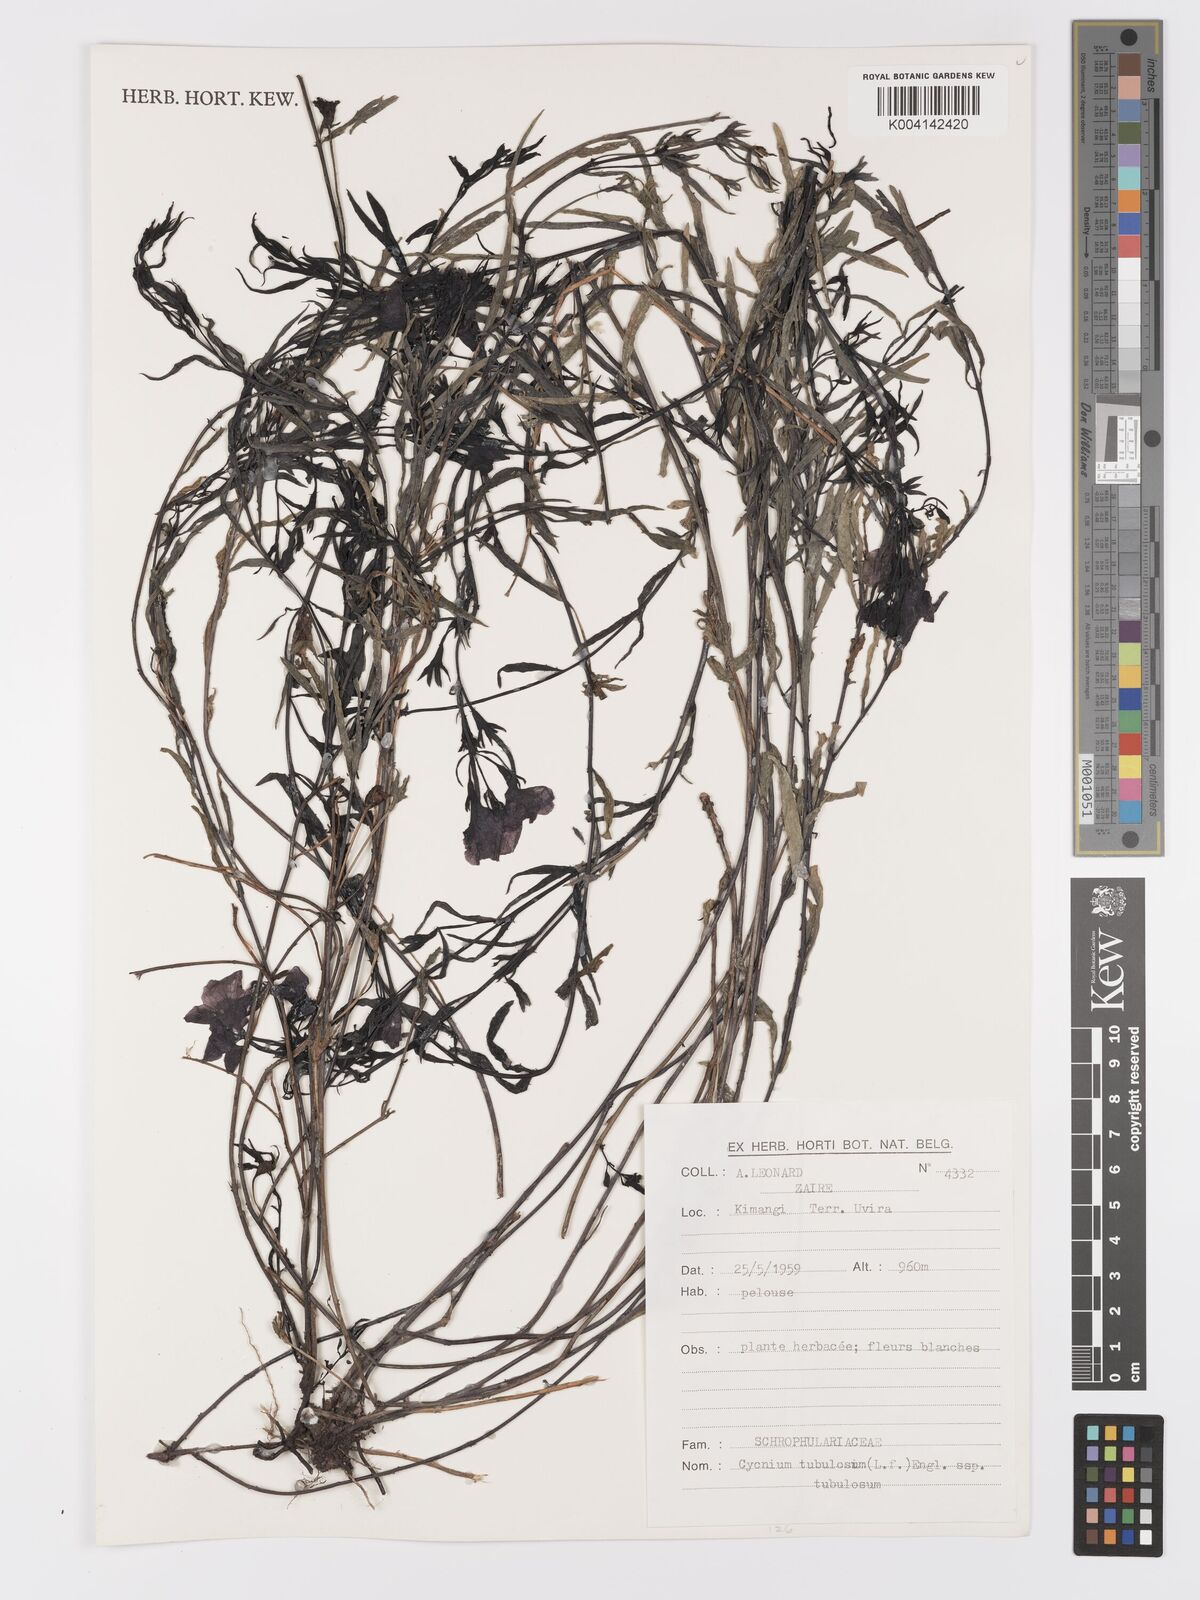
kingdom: Plantae
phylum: Tracheophyta
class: Magnoliopsida
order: Lamiales
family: Orobanchaceae
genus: Cycnium
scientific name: Cycnium tubulosum
